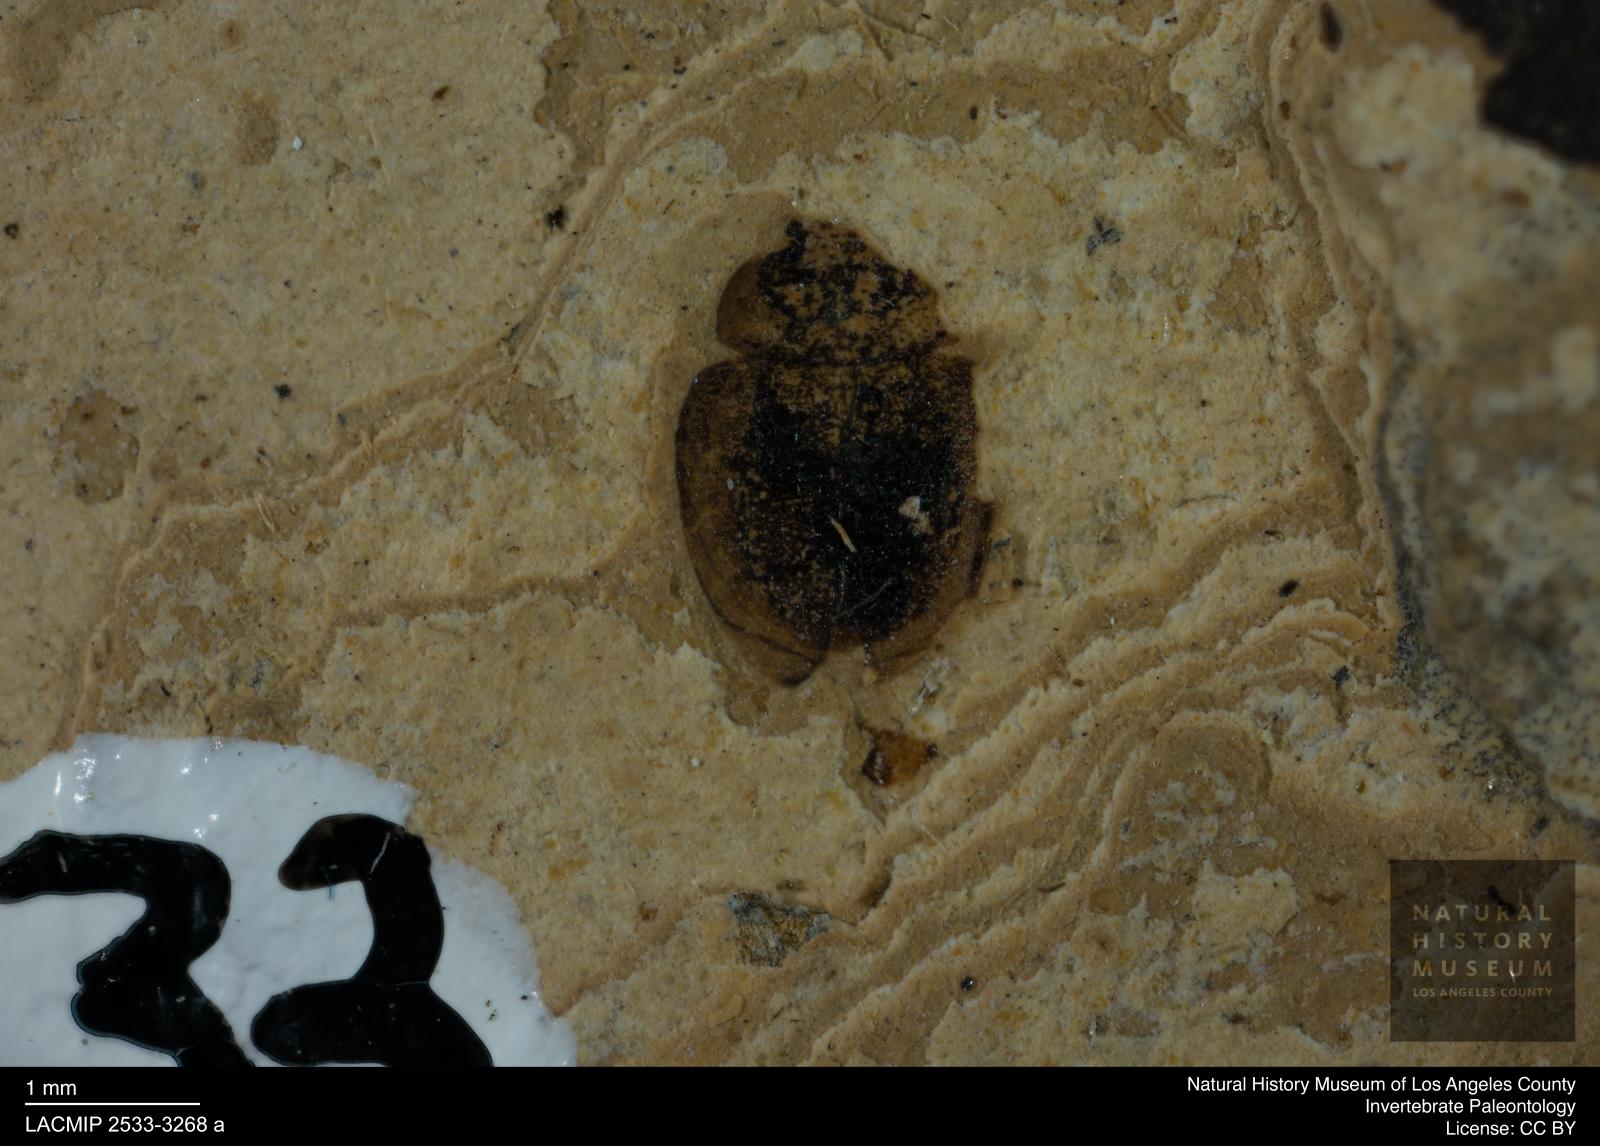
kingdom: Animalia
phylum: Arthropoda
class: Insecta
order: Coleoptera
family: Hydrophilidae
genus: Paracymus
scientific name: Paracymus excitatus
